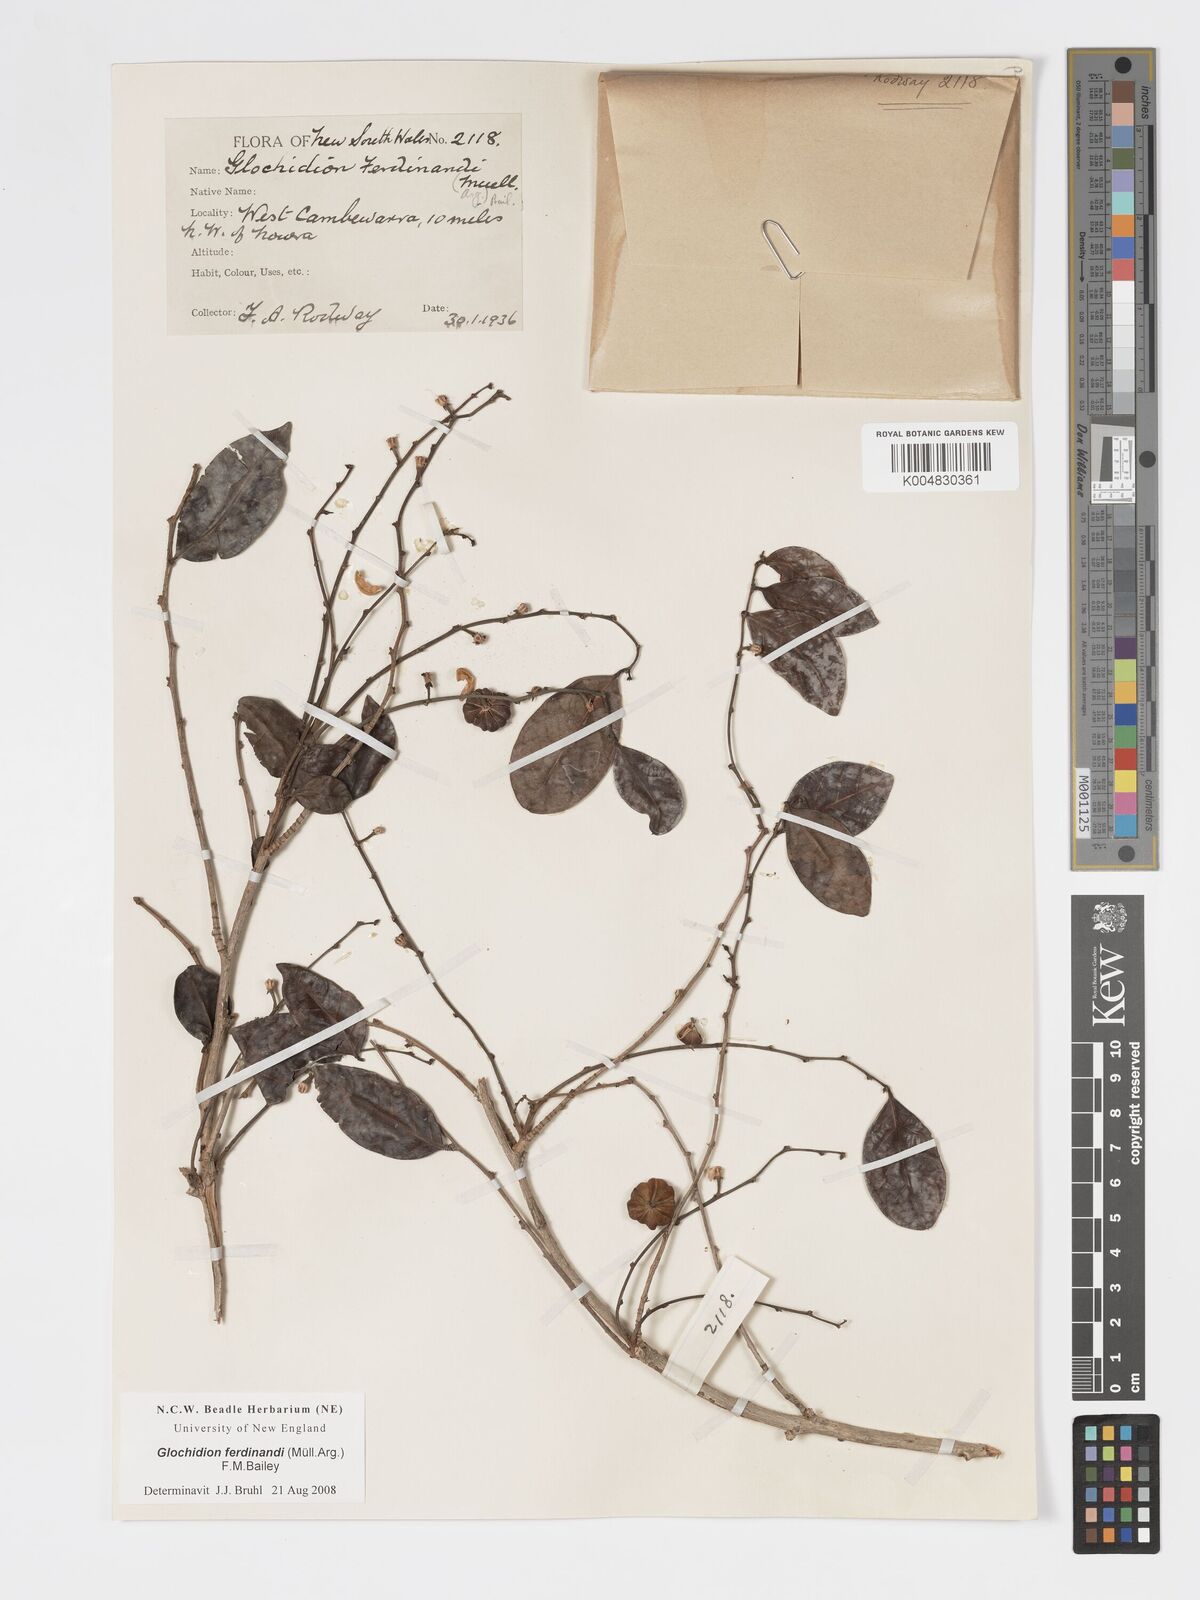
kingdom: Plantae
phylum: Tracheophyta
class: Magnoliopsida
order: Malpighiales
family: Phyllanthaceae
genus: Glochidion
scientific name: Glochidion ferdinandi
